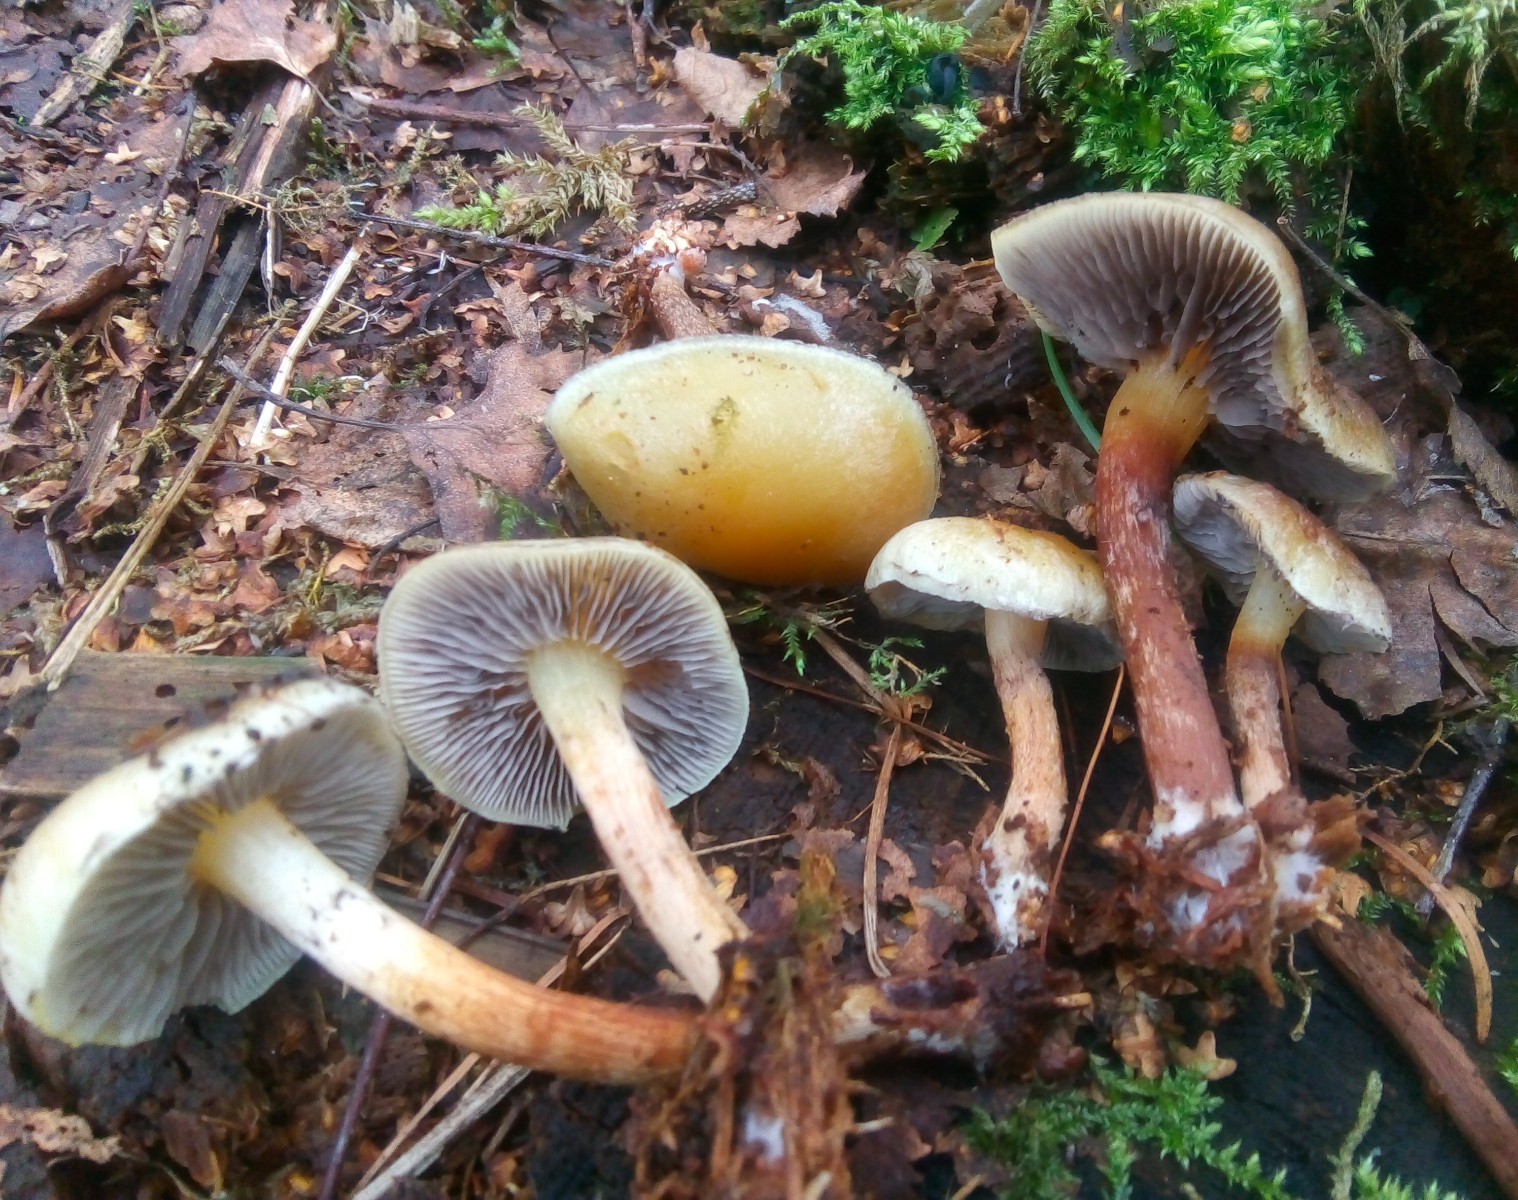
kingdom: Fungi
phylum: Basidiomycota
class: Agaricomycetes
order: Agaricales
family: Strophariaceae
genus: Hypholoma
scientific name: Hypholoma capnoides
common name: gran-svovlhat
